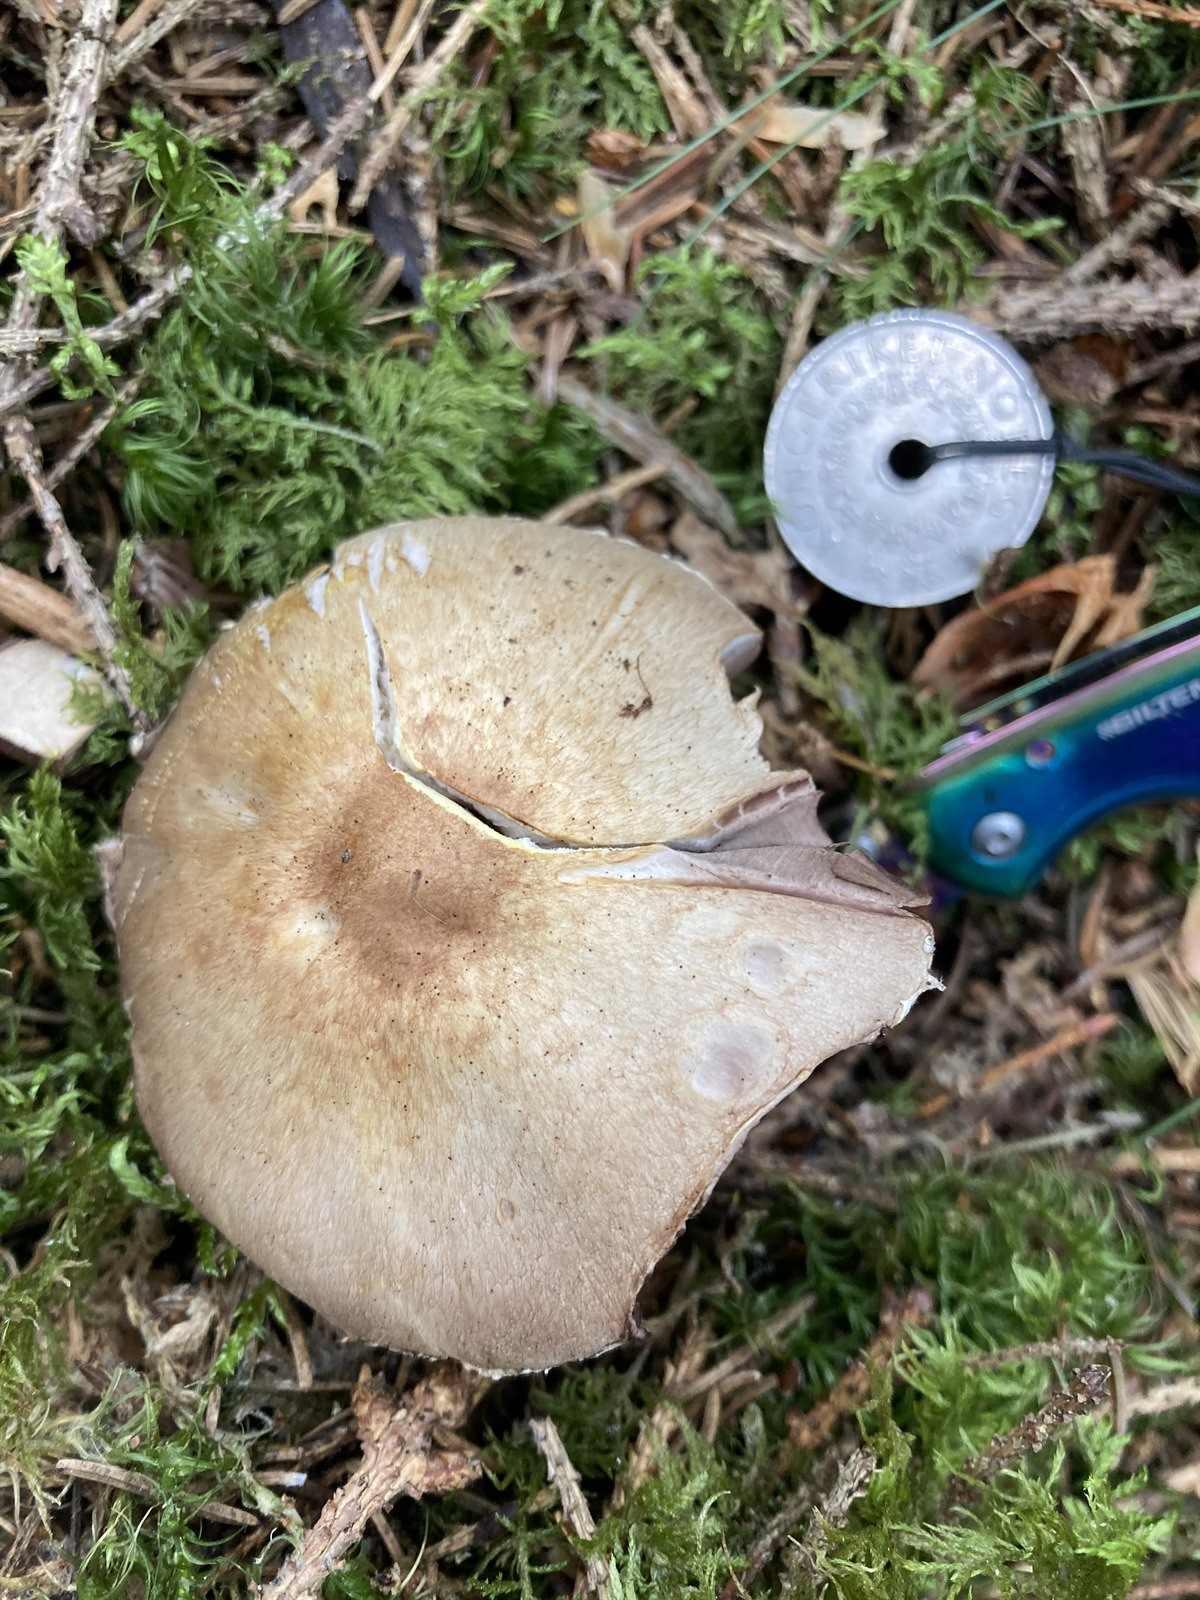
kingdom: Fungi
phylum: Basidiomycota
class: Agaricomycetes
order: Agaricales
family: Agaricaceae
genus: Agaricus
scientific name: Agaricus kerriganii
